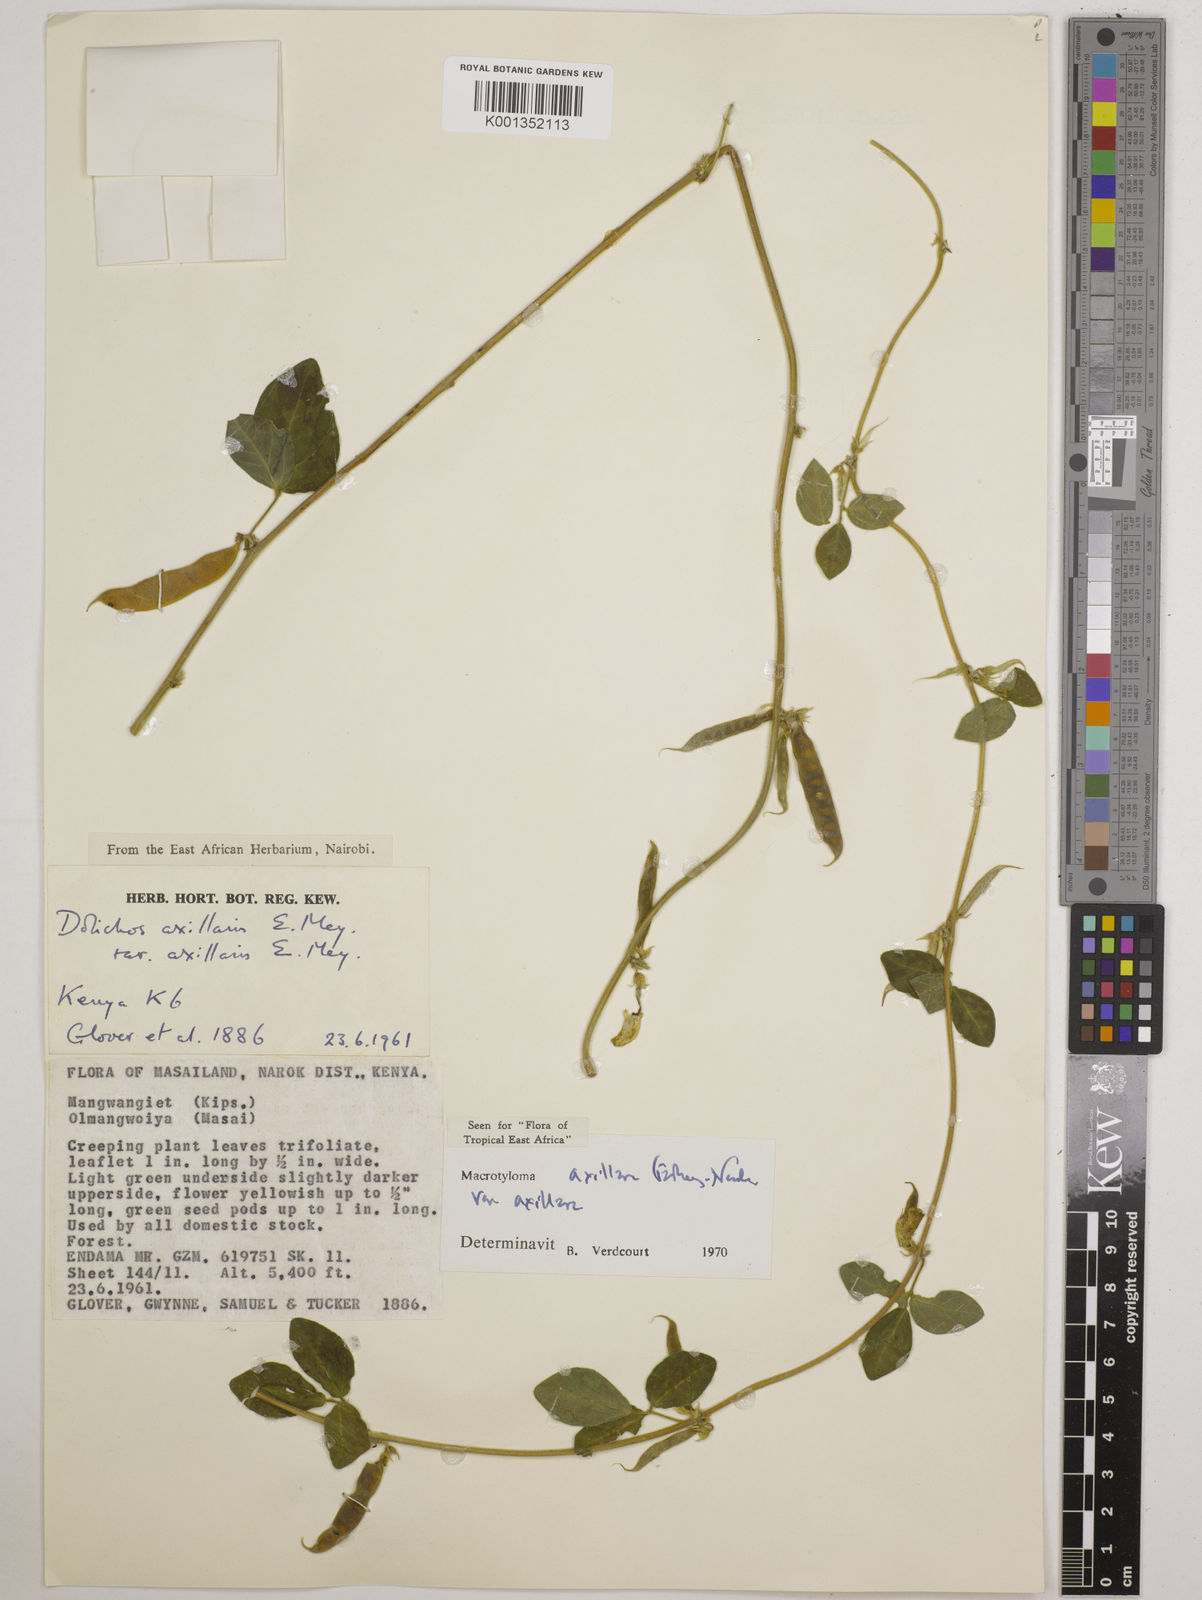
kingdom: Plantae
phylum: Tracheophyta
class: Magnoliopsida
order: Fabales
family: Fabaceae
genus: Macrotyloma
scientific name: Macrotyloma axillare
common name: Perennial horsegram
